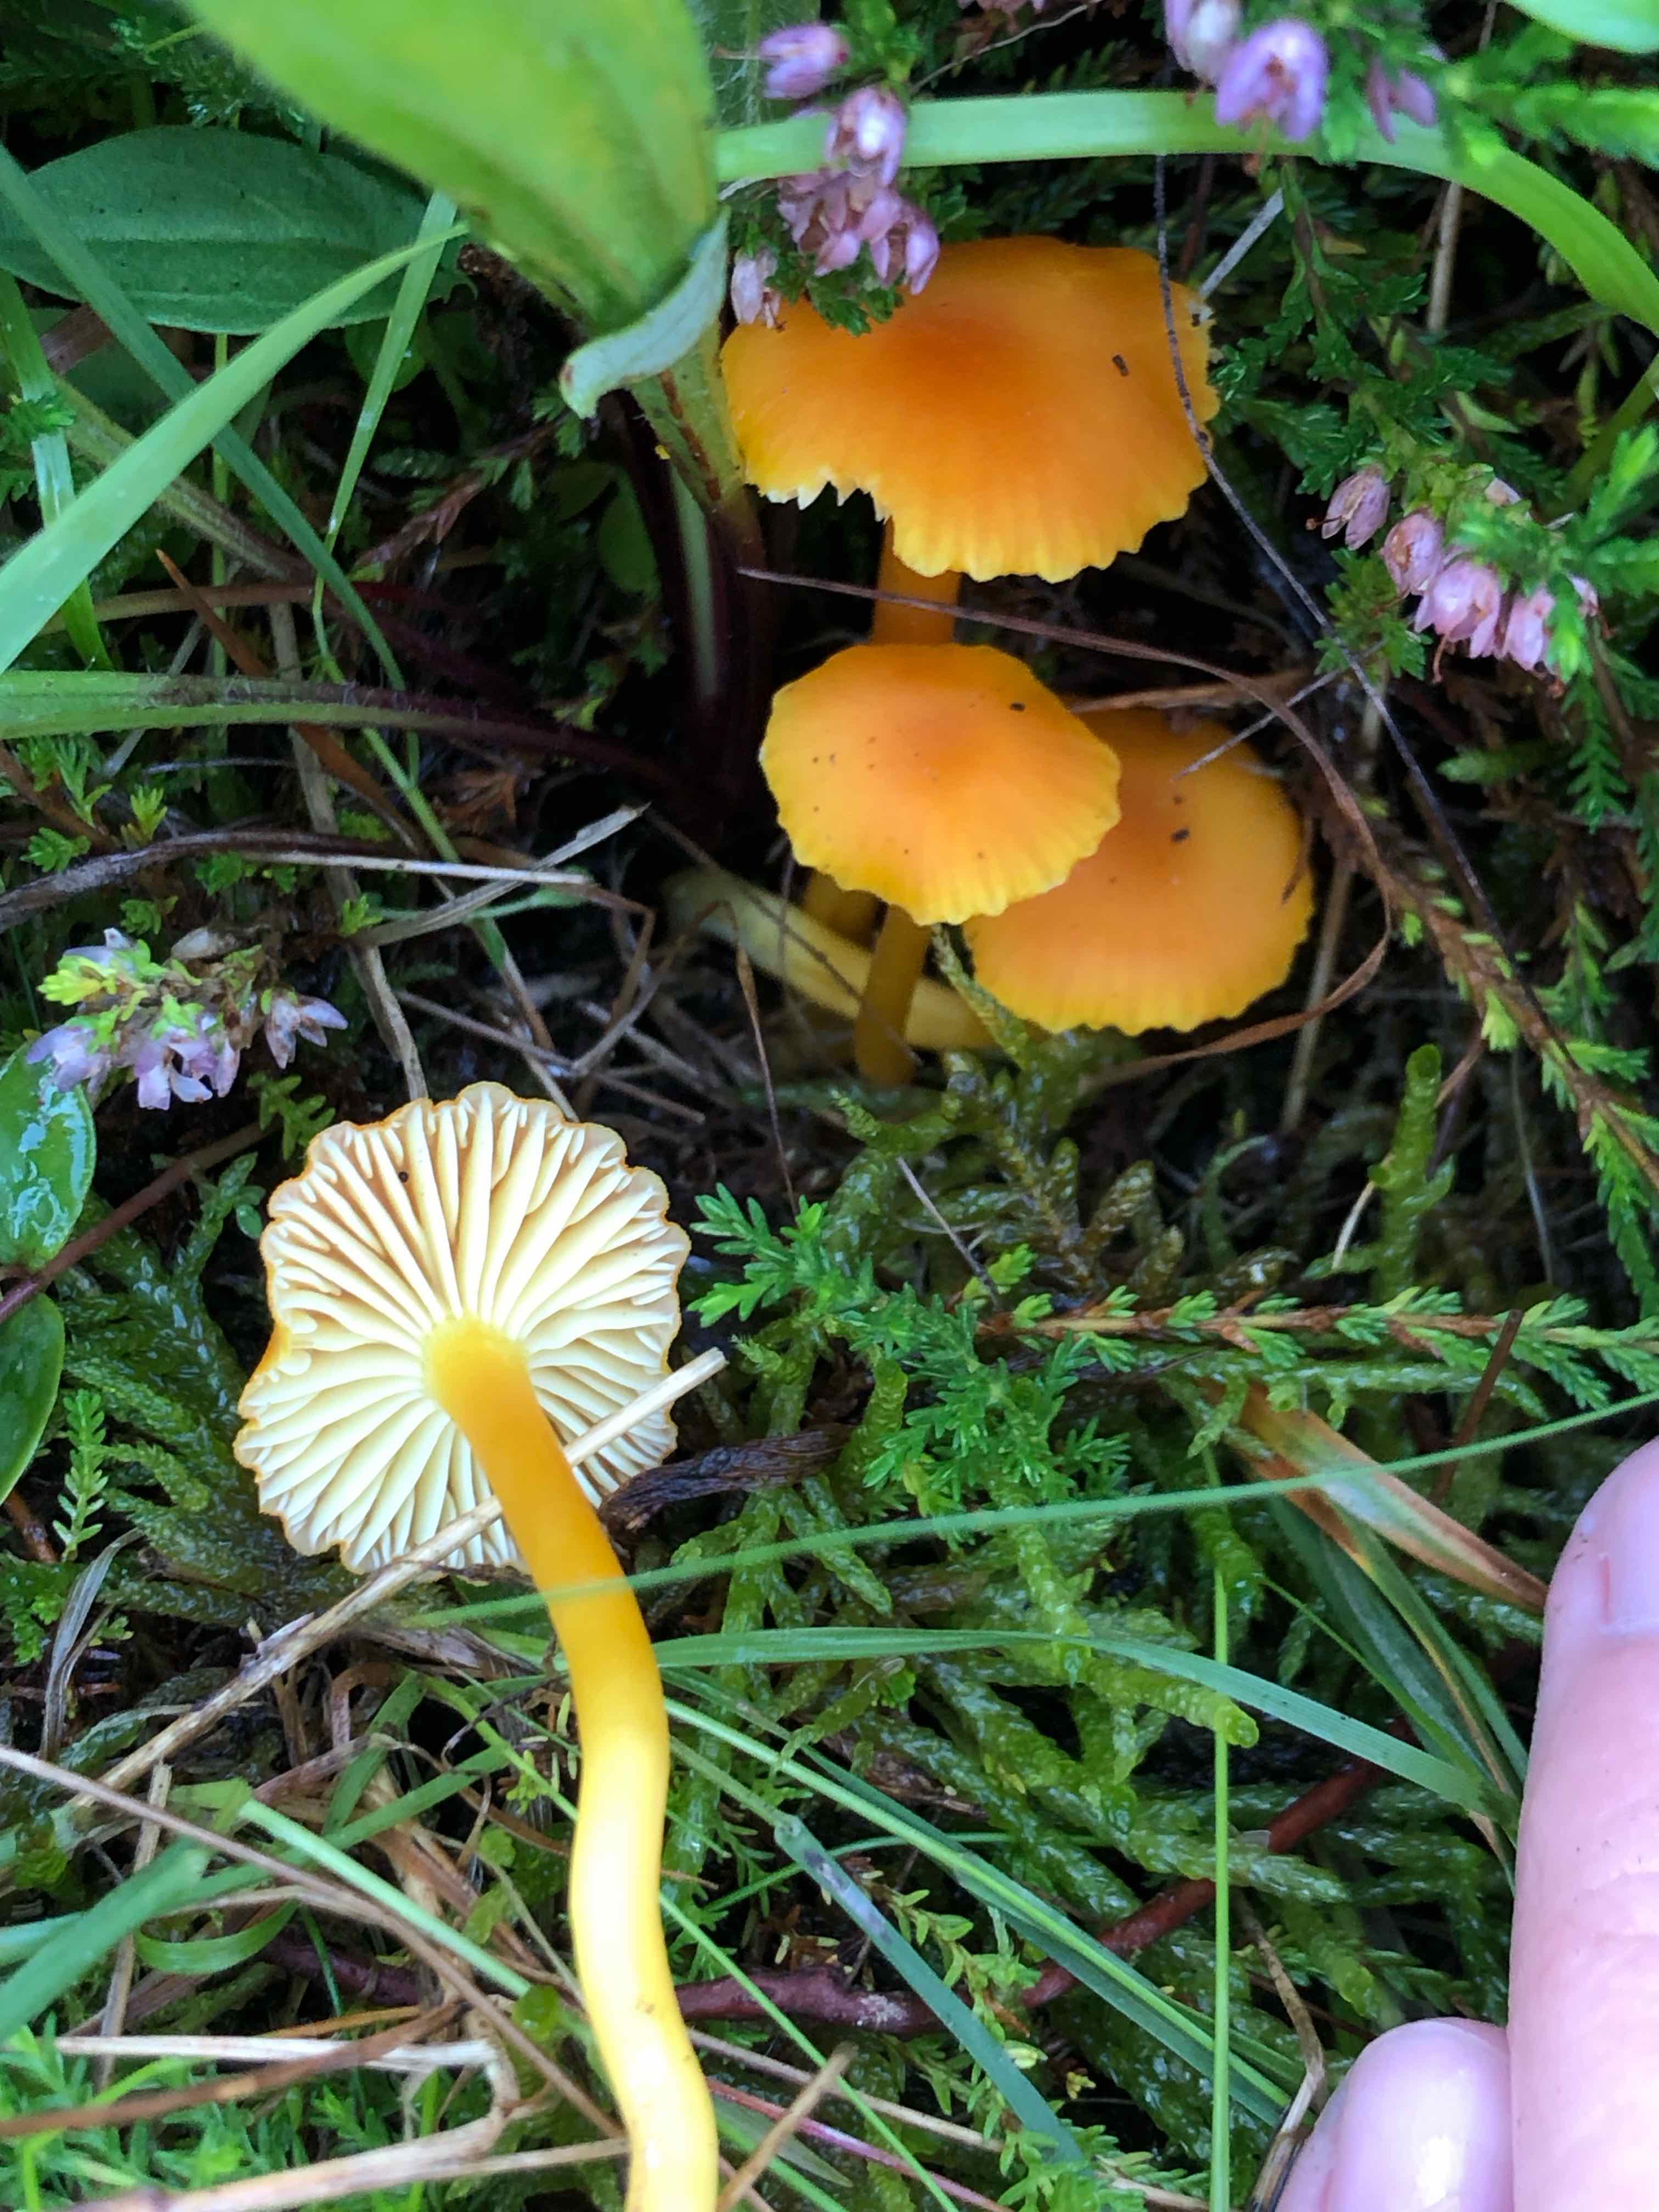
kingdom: Fungi
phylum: Basidiomycota
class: Agaricomycetes
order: Agaricales
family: Hygrophoraceae
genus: Hygrocybe
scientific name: Hygrocybe reidii
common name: honning-vokshat
